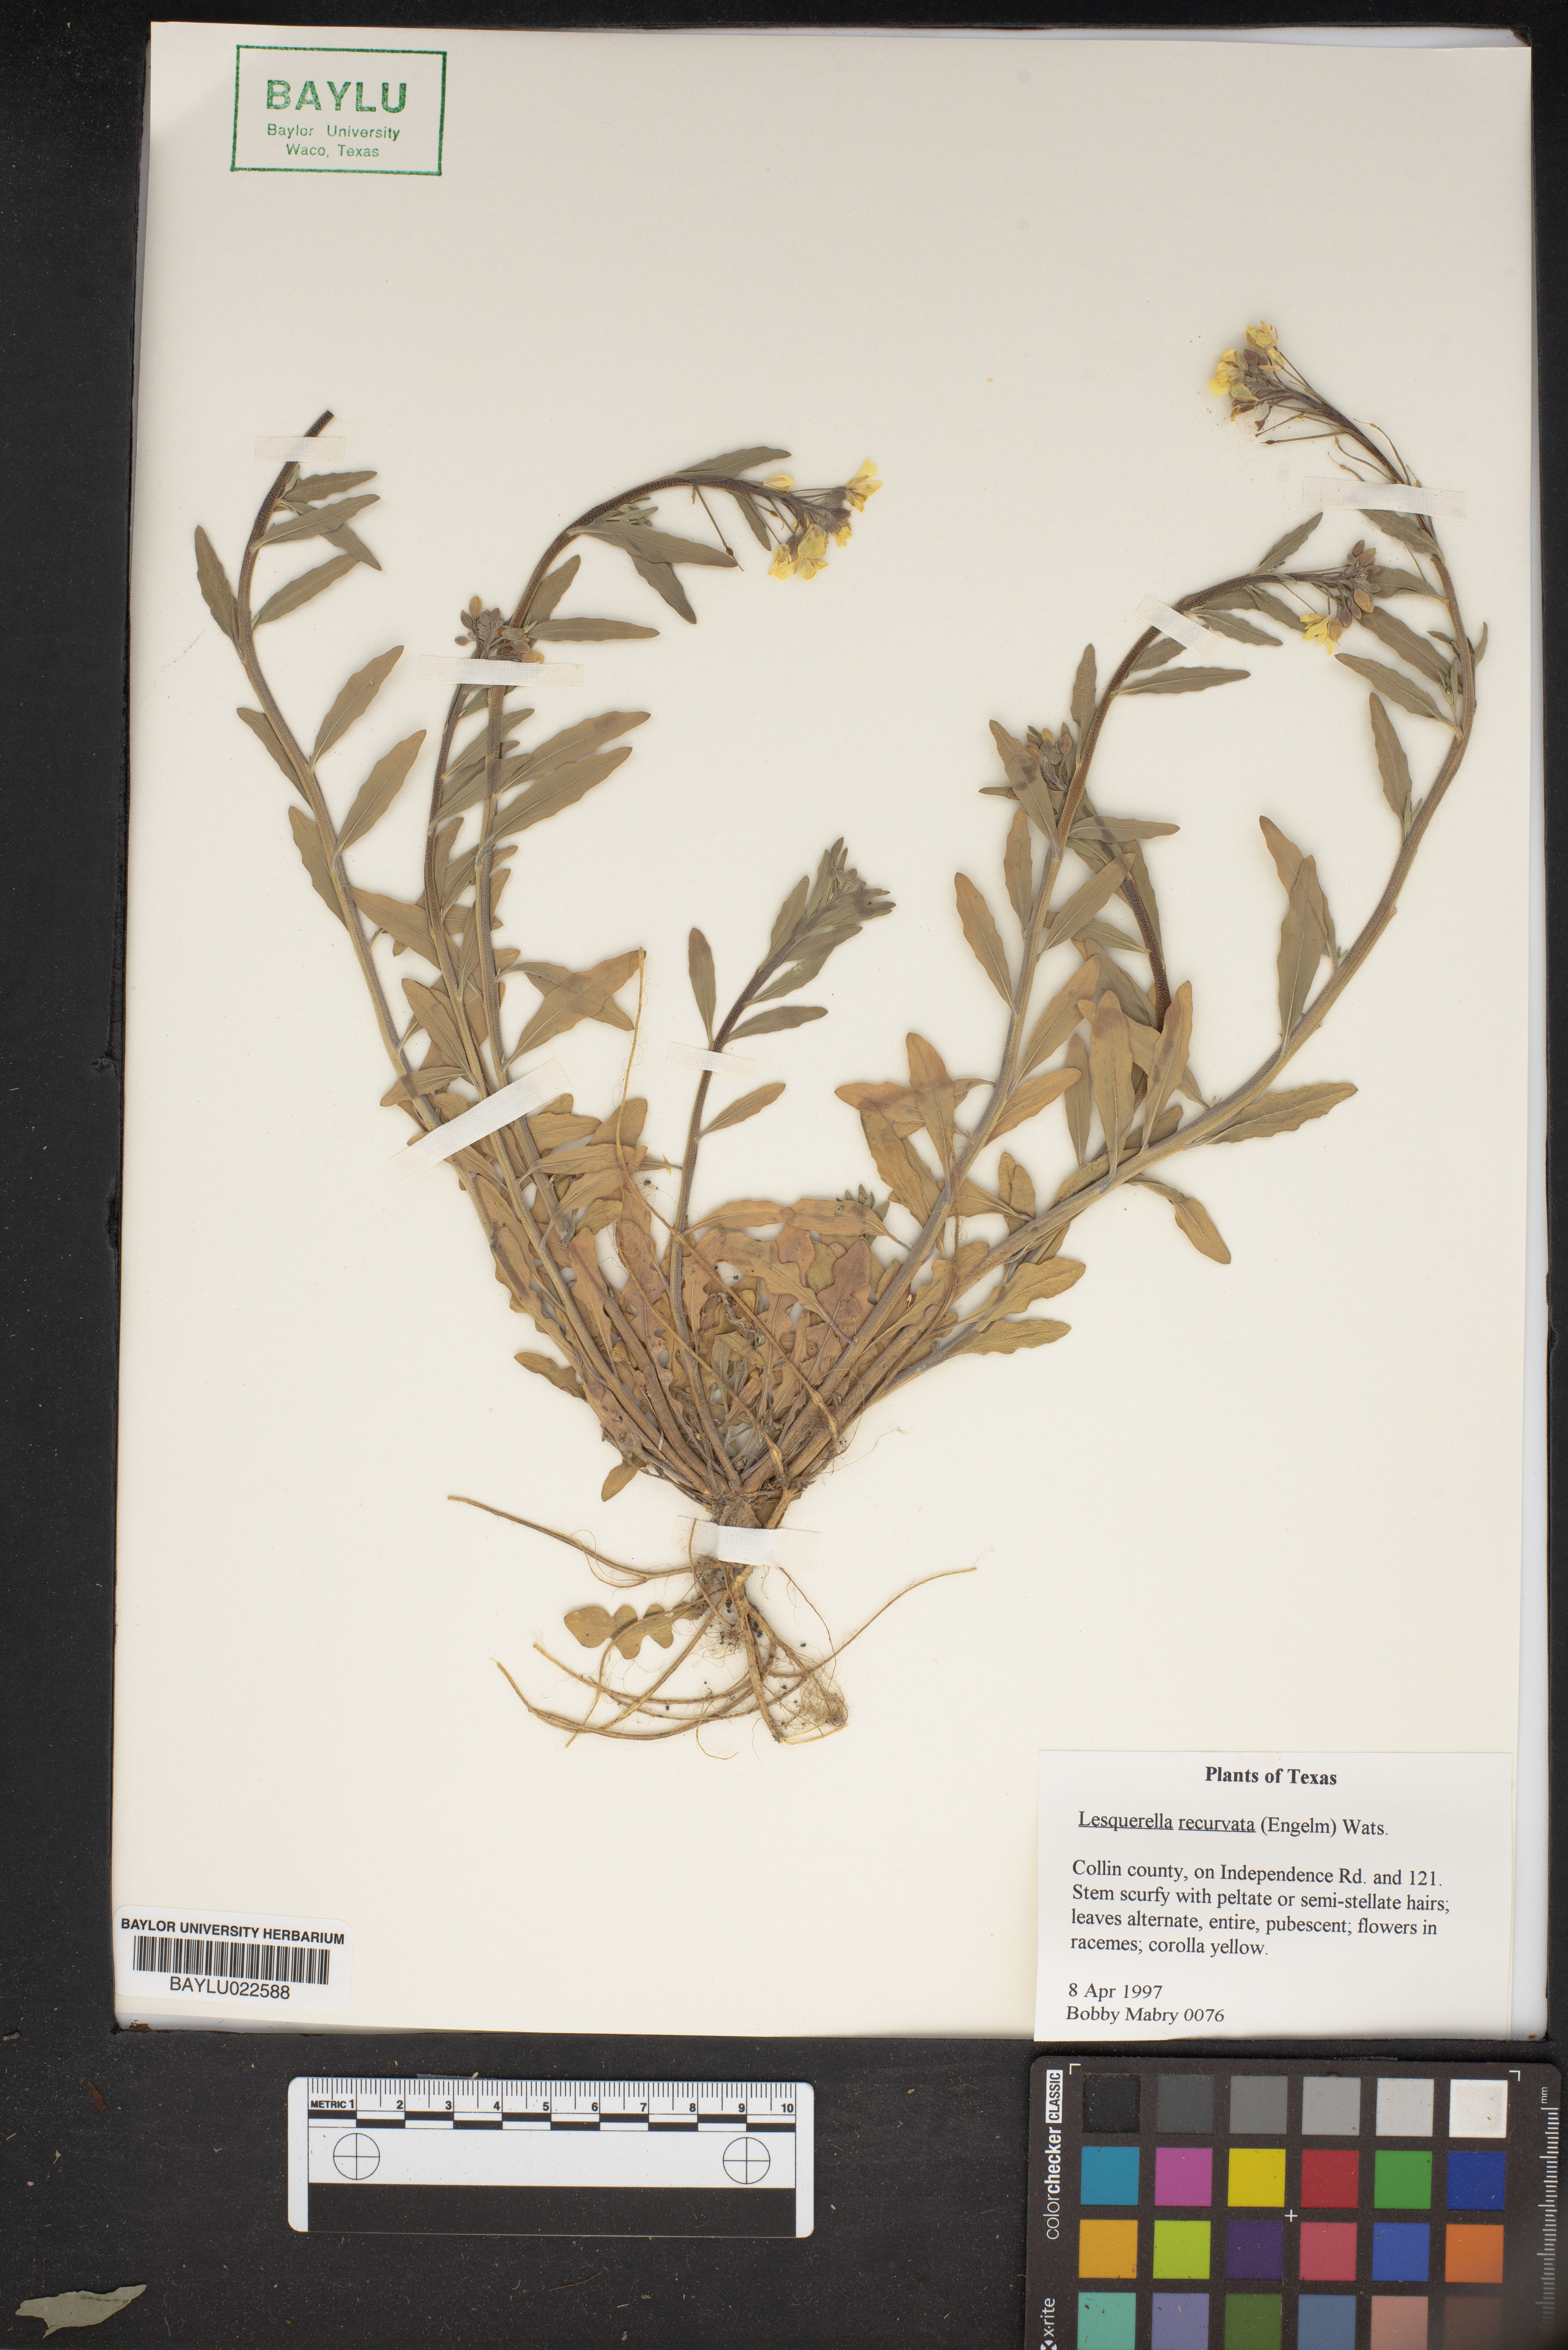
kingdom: Plantae
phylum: Tracheophyta
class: Magnoliopsida
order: Brassicales
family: Brassicaceae
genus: Physaria
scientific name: Physaria recurvata
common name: Gaslight bladderpod
